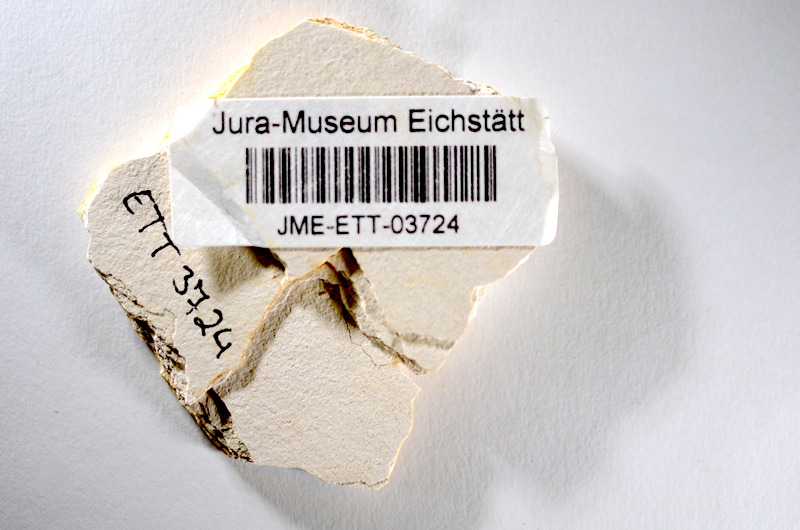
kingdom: Animalia
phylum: Chordata
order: Salmoniformes
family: Orthogonikleithridae
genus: Orthogonikleithrus
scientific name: Orthogonikleithrus hoelli
